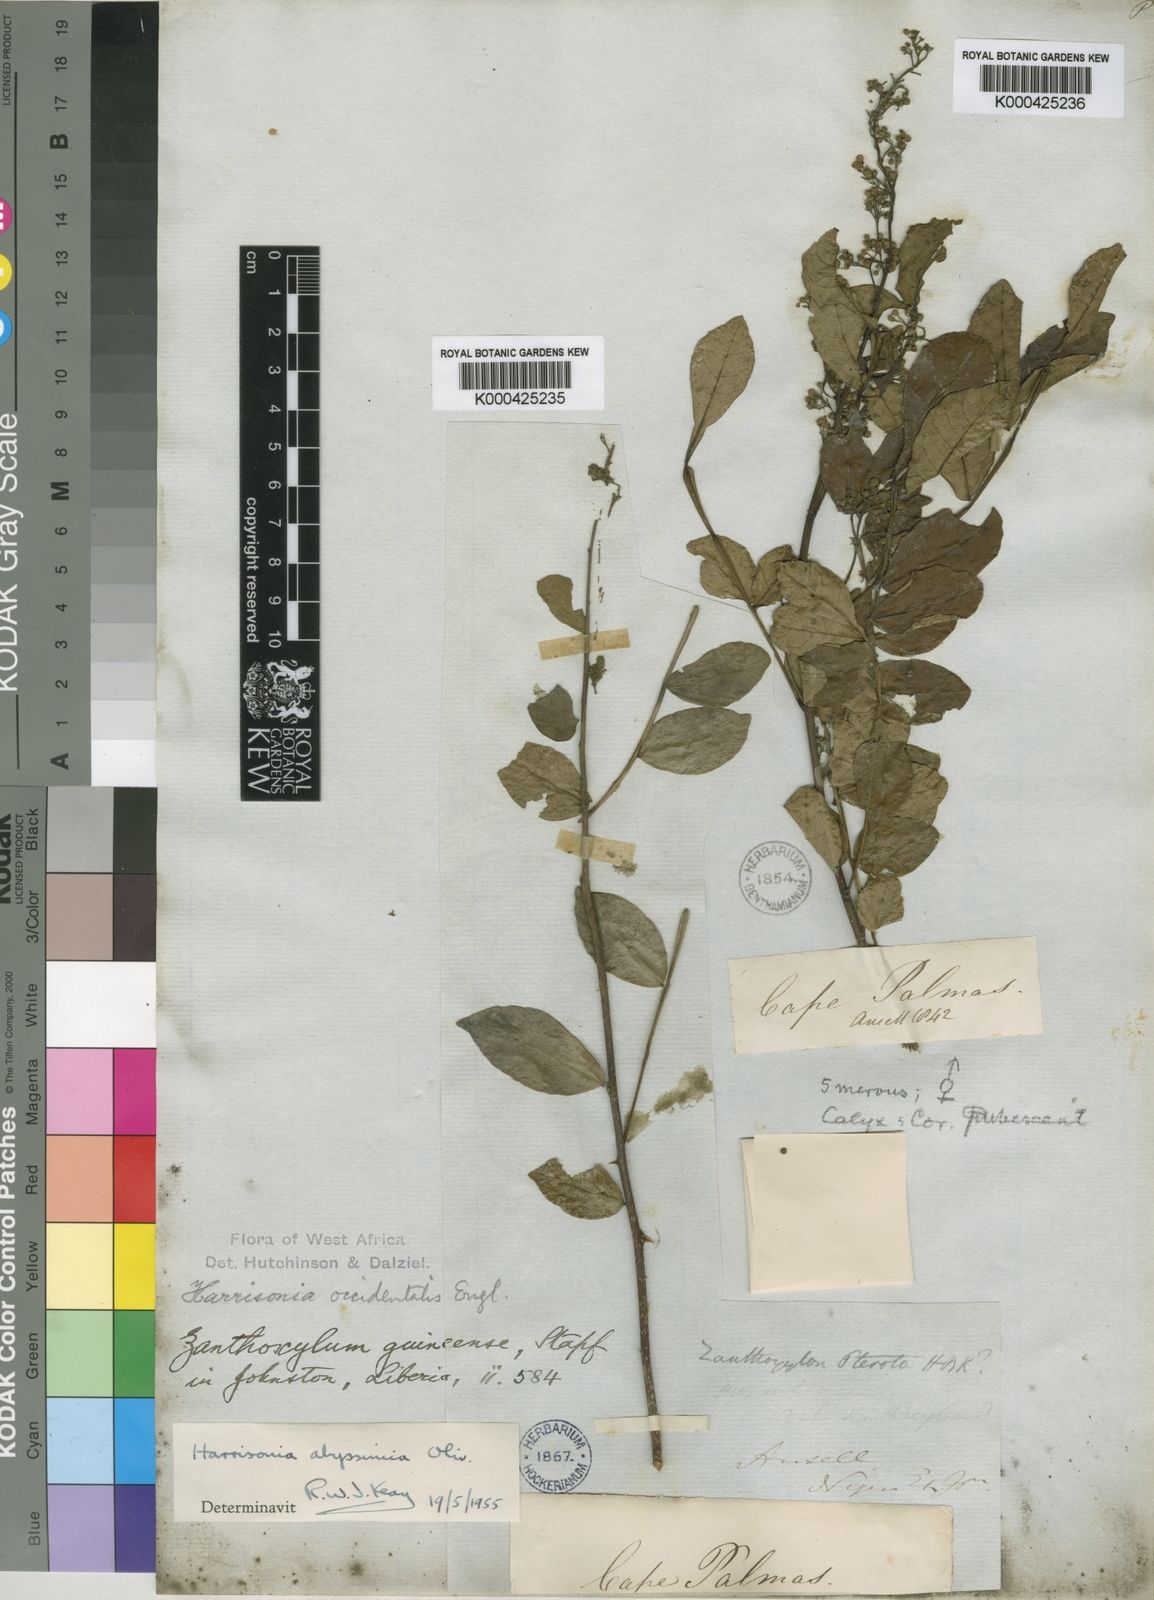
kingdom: Plantae
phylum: Tracheophyta
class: Magnoliopsida
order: Sapindales
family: Rutaceae
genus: Harrisonia
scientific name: Harrisonia abyssinica
